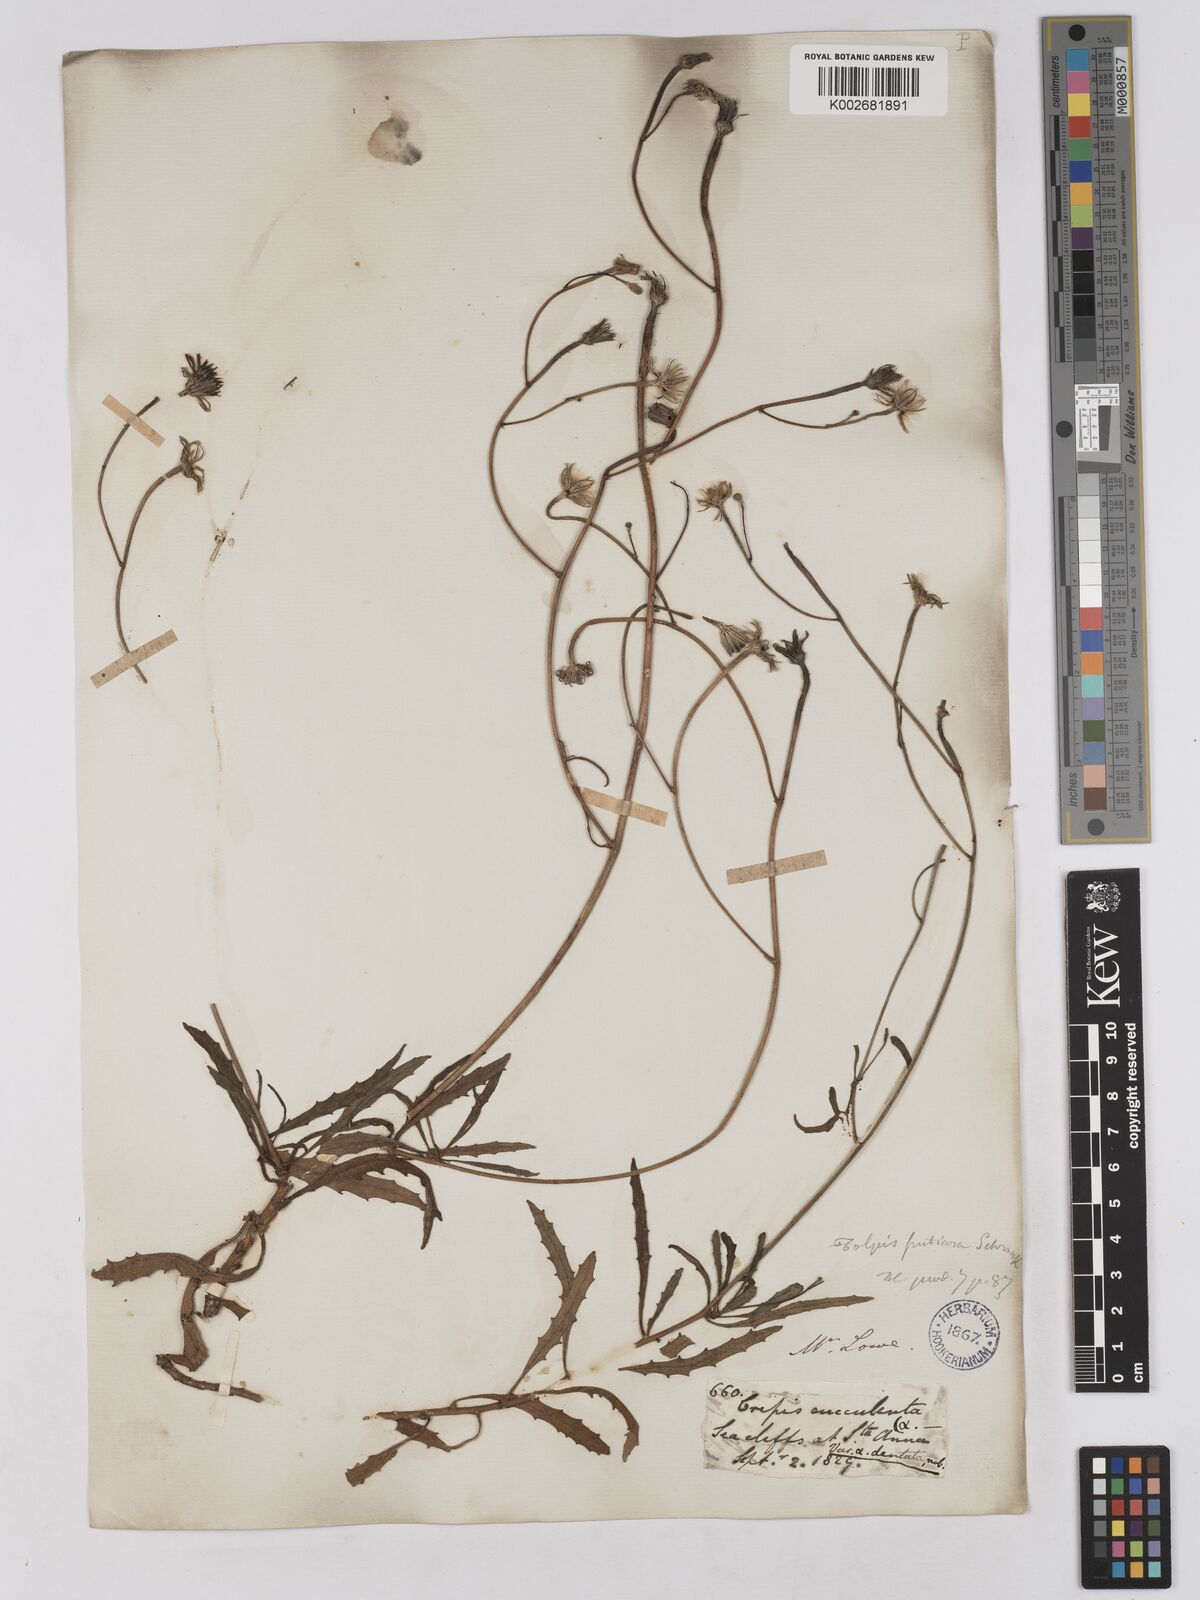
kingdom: Plantae
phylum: Tracheophyta
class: Magnoliopsida
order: Asterales
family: Asteraceae
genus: Tolpis
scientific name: Tolpis succulenta
